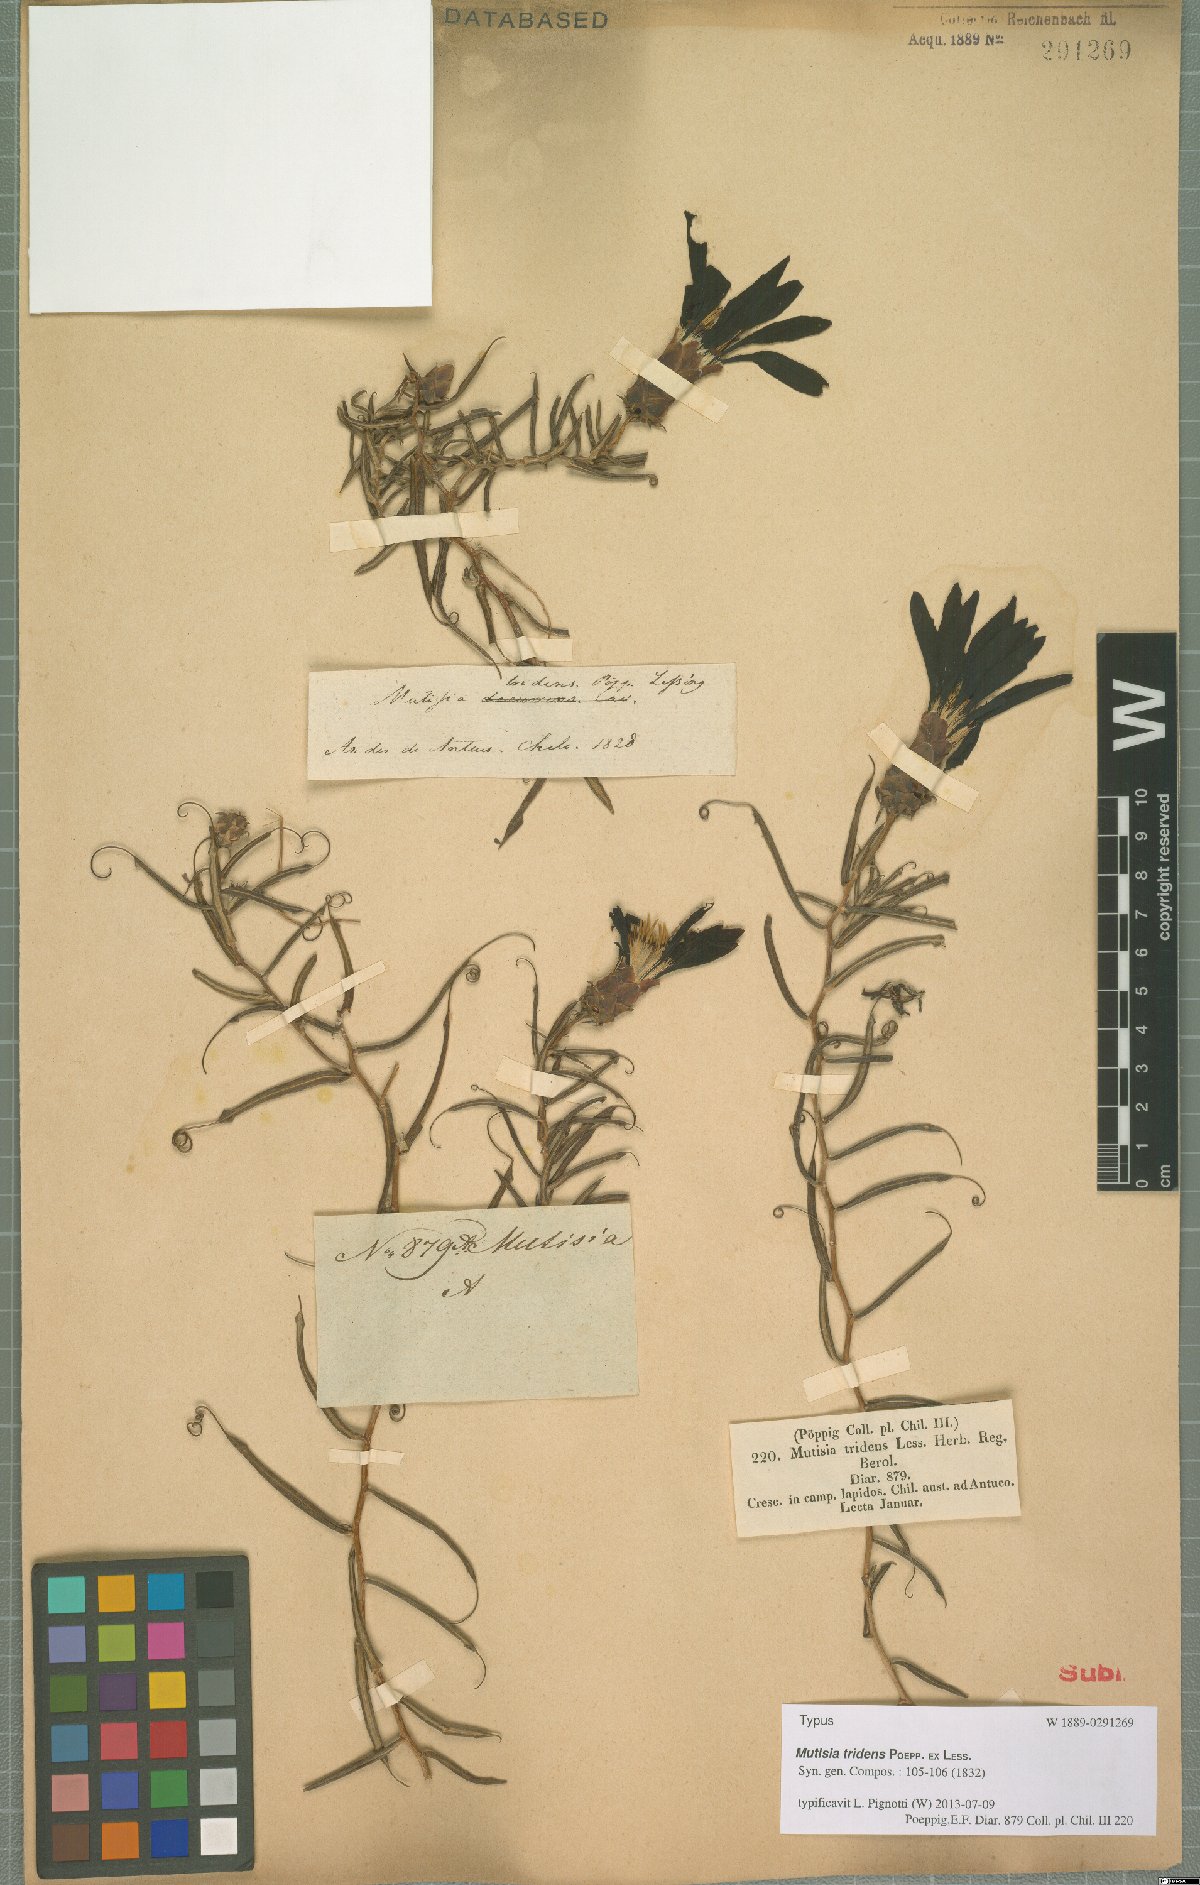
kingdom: Plantae
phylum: Tracheophyta
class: Magnoliopsida
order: Asterales
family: Asteraceae
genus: Mutisia
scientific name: Mutisia tridens
